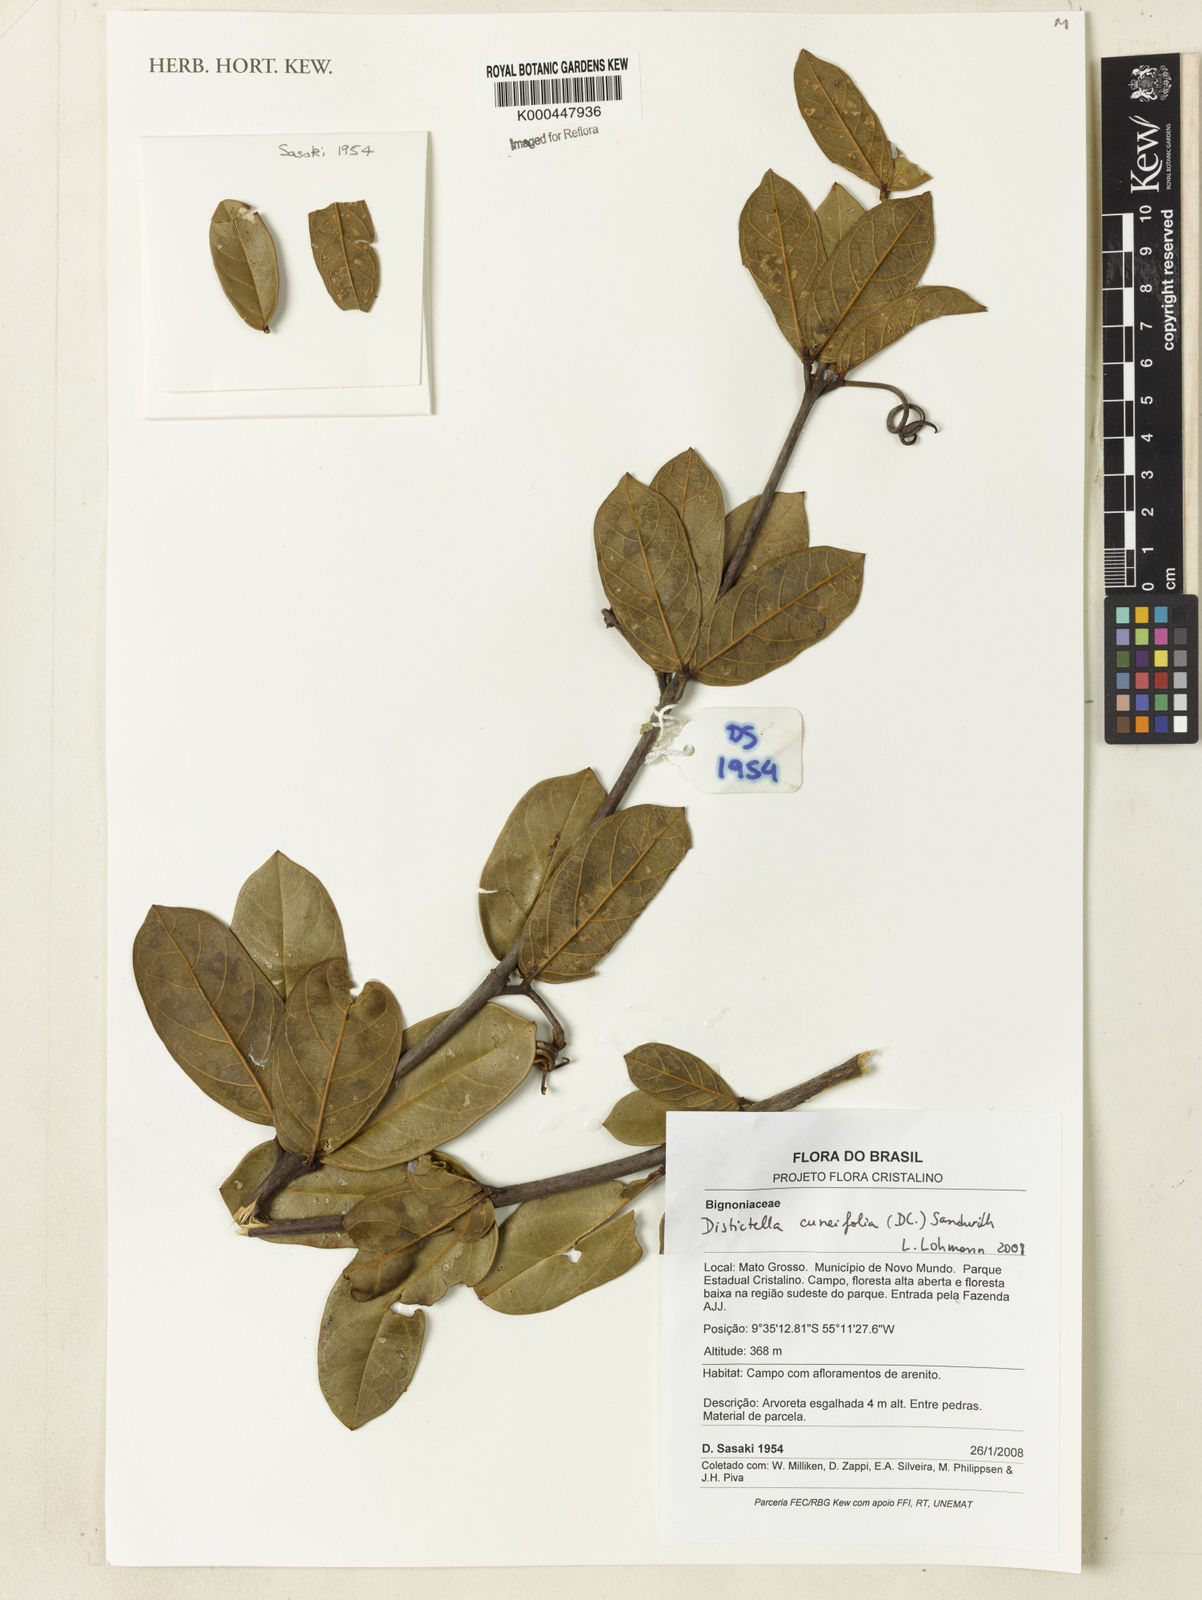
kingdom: Plantae
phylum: Tracheophyta
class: Magnoliopsida
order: Lamiales
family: Bignoniaceae
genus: Amphilophium
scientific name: Amphilophium cuneifolium
